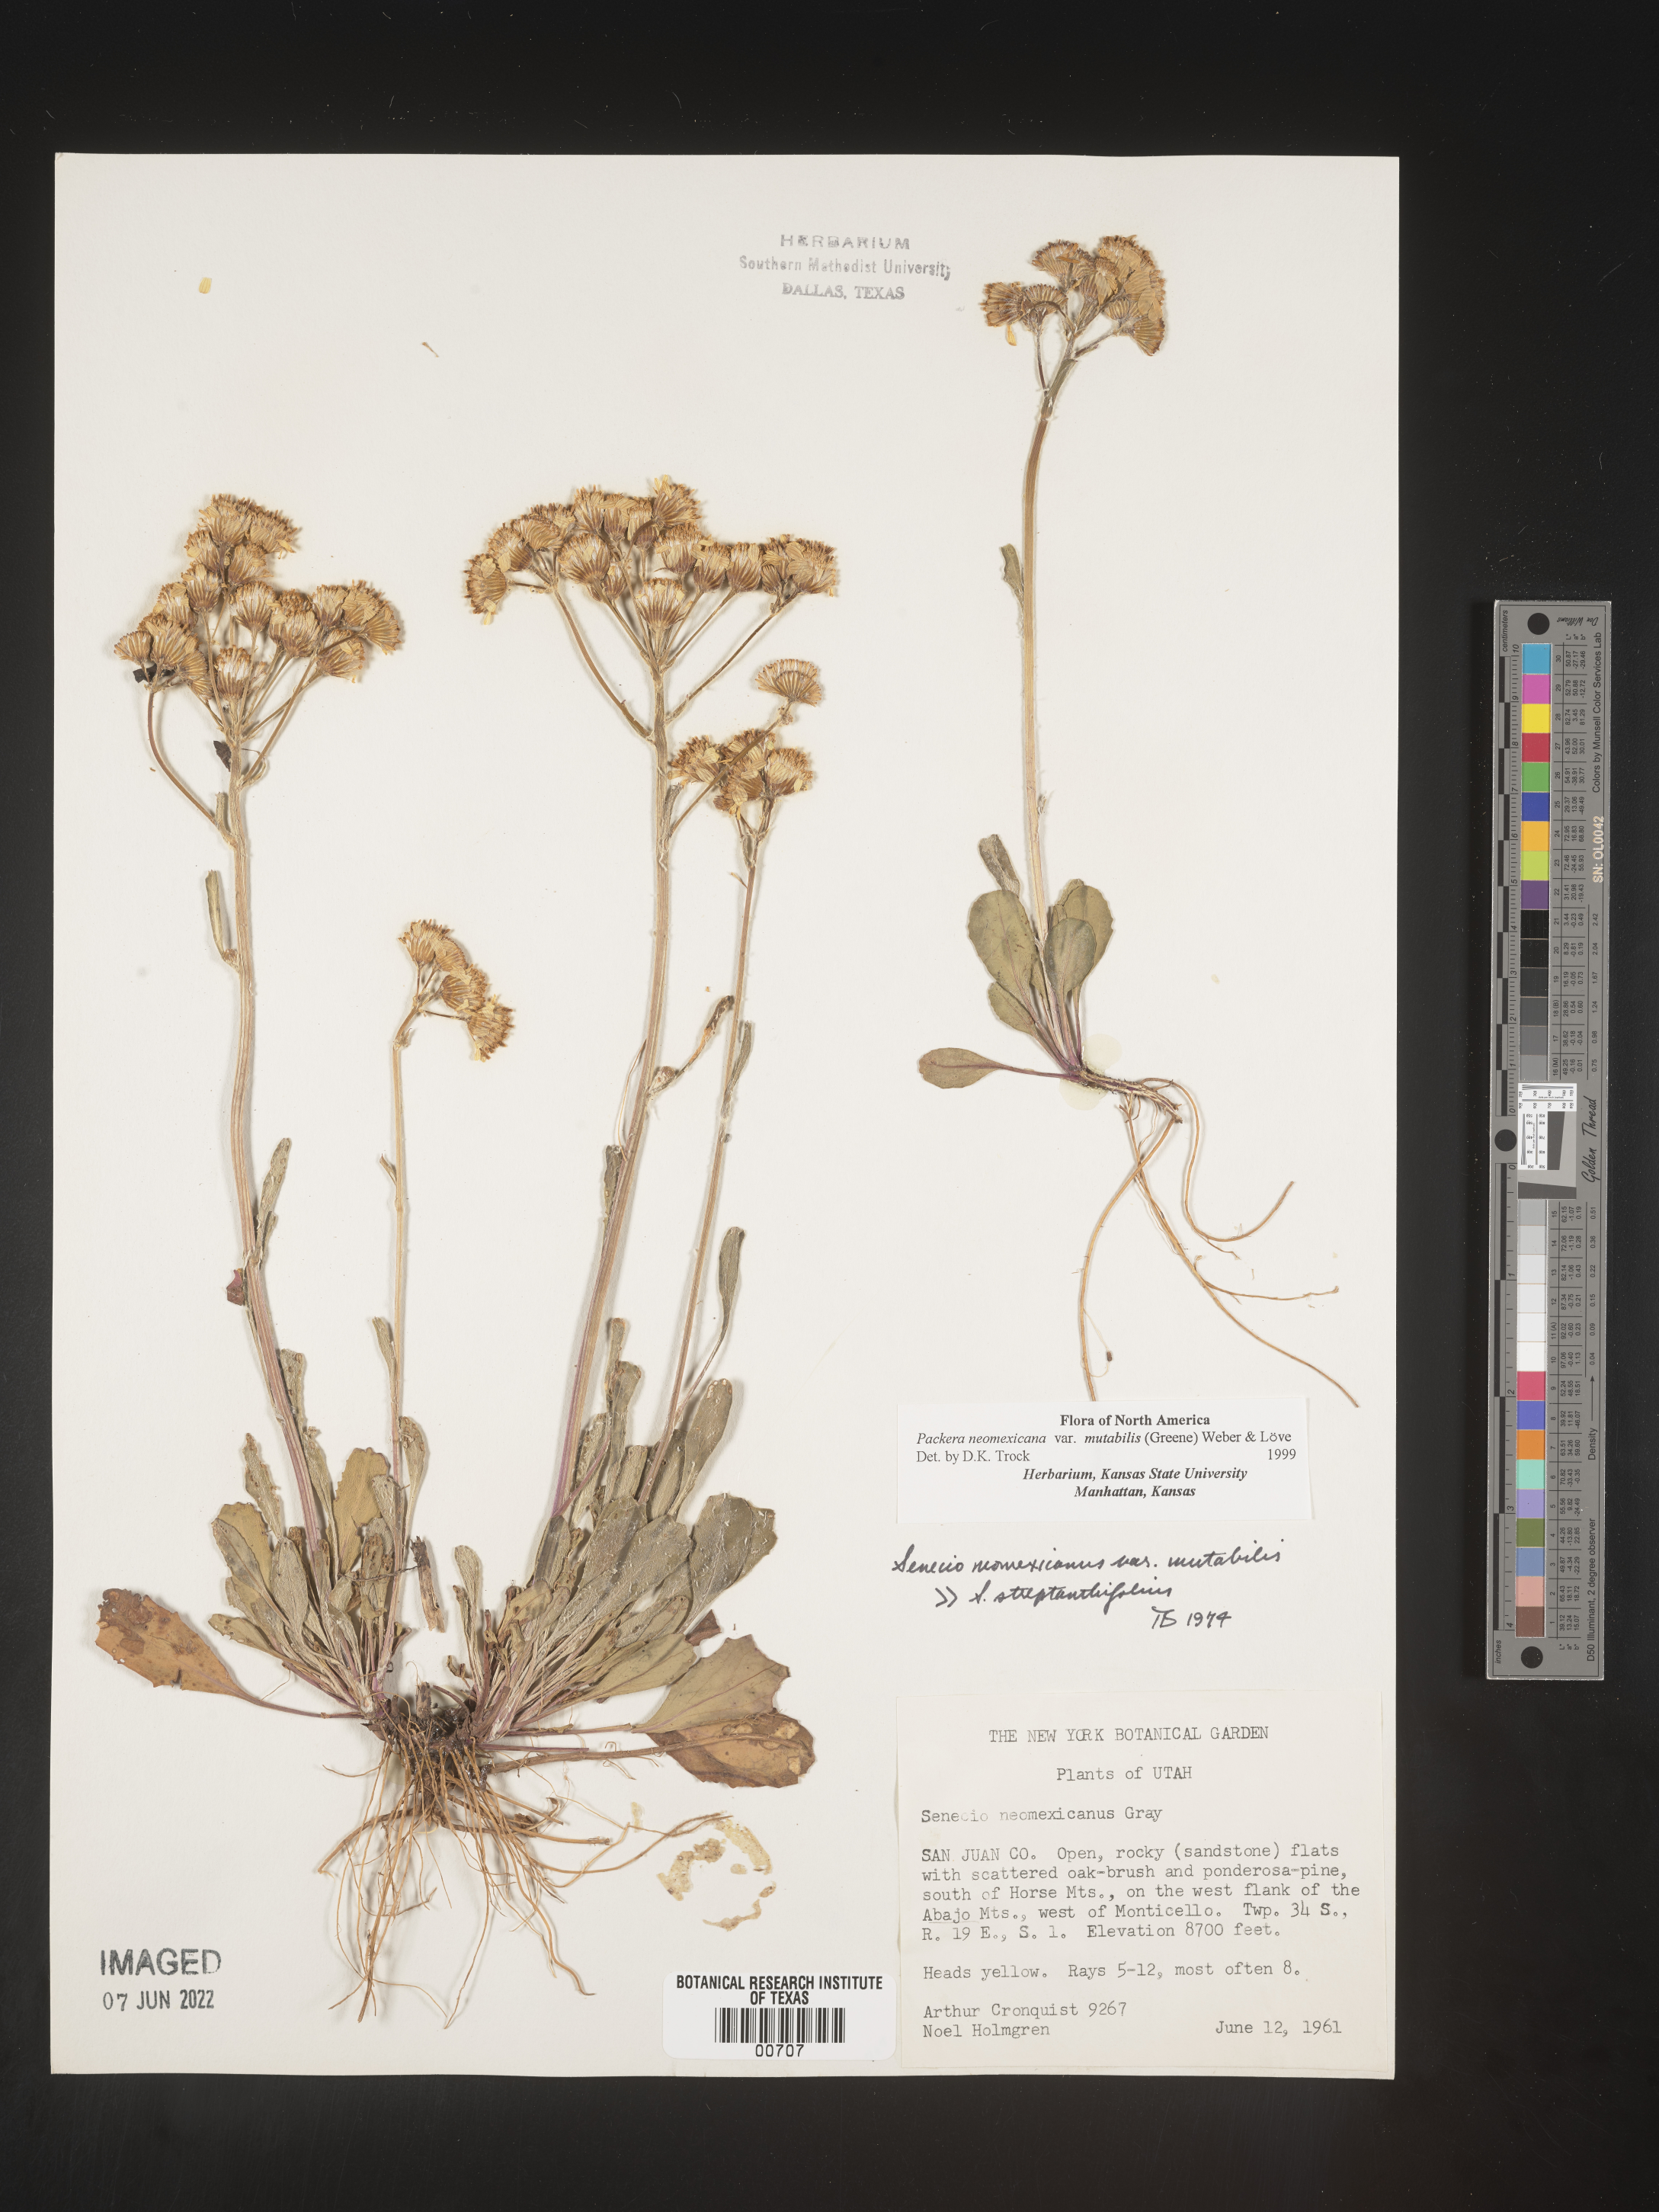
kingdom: Plantae
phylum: Tracheophyta
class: Magnoliopsida
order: Asterales
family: Asteraceae
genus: Packera
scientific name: Packera neomexicana
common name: New mexico butterweed
